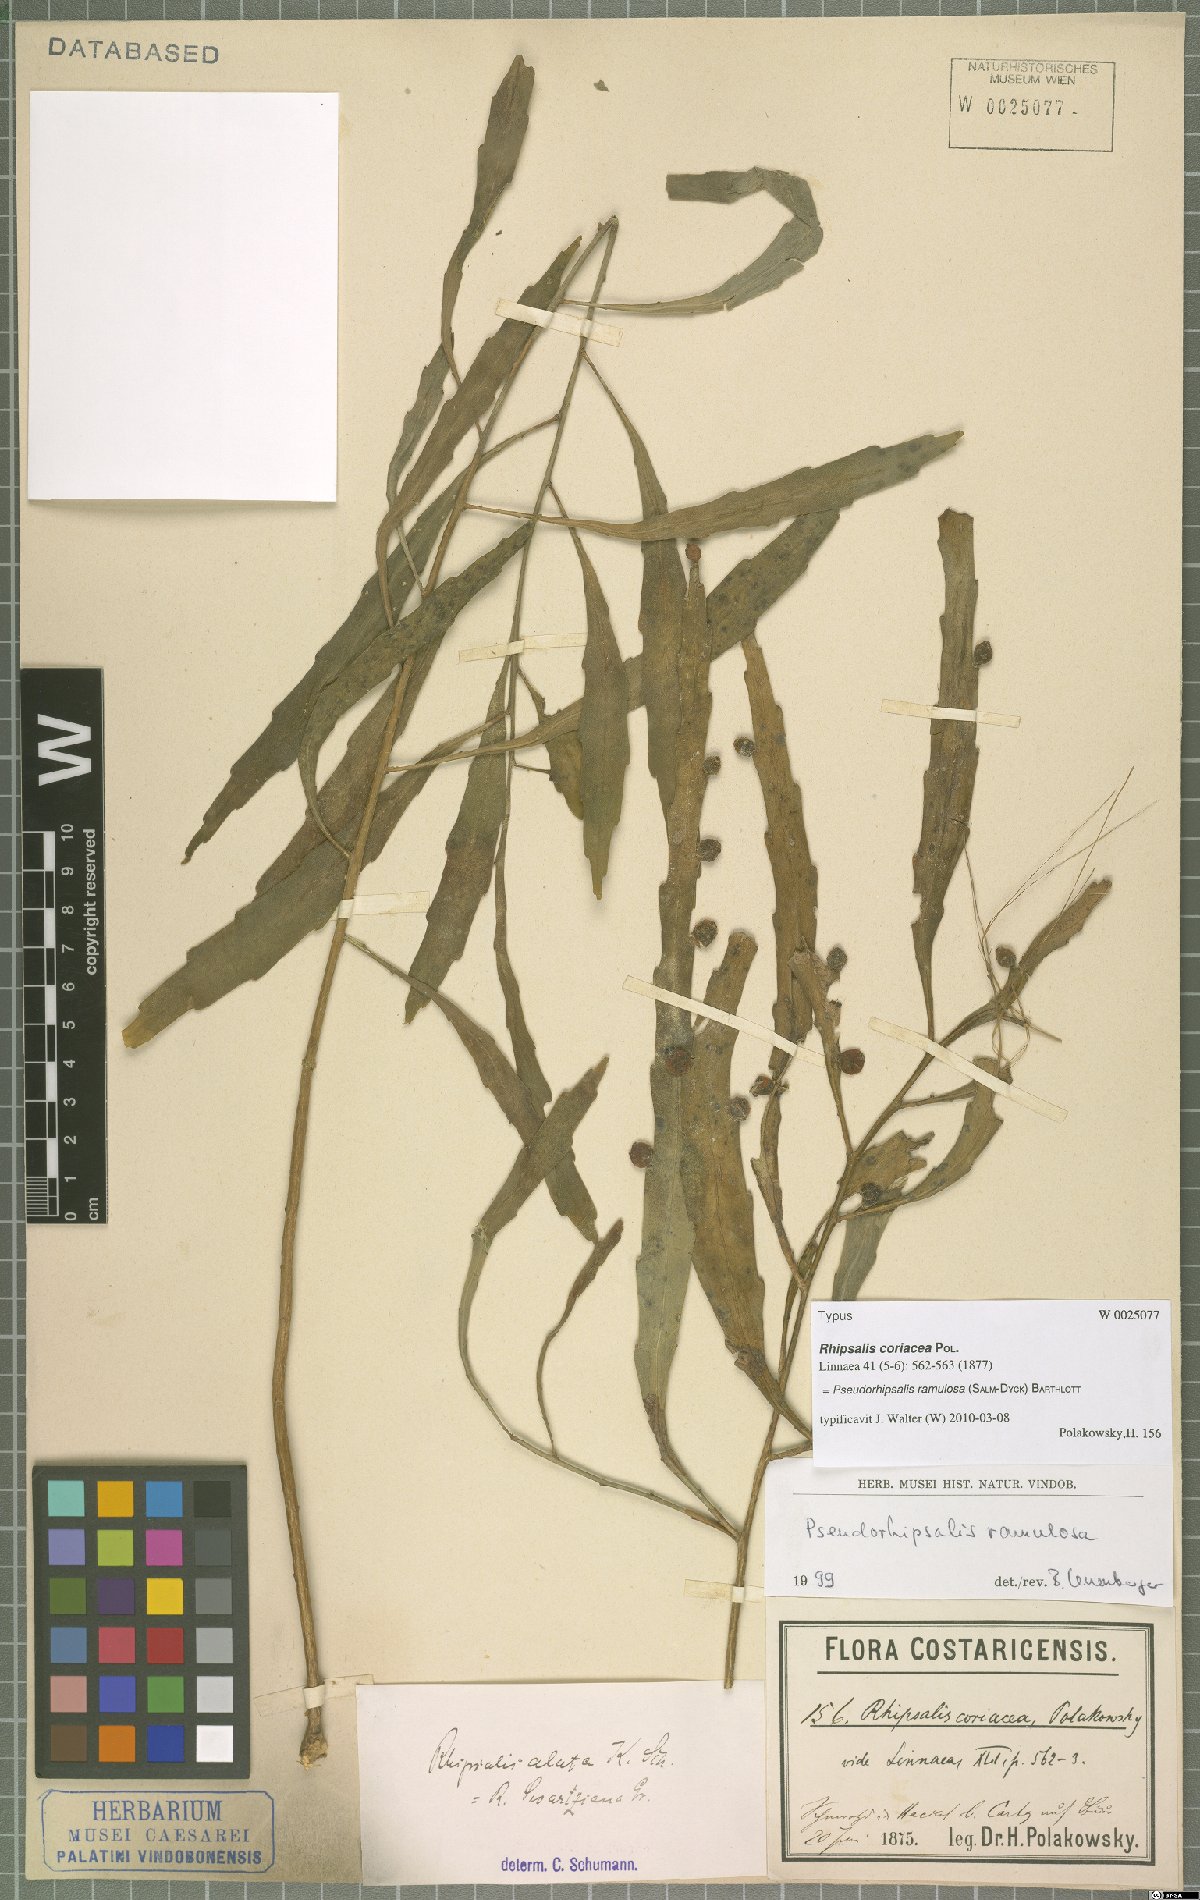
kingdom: Plantae
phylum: Tracheophyta
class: Magnoliopsida
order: Caryophyllales
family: Cactaceae
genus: Pseudorhipsalis
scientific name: Pseudorhipsalis ramulosa
